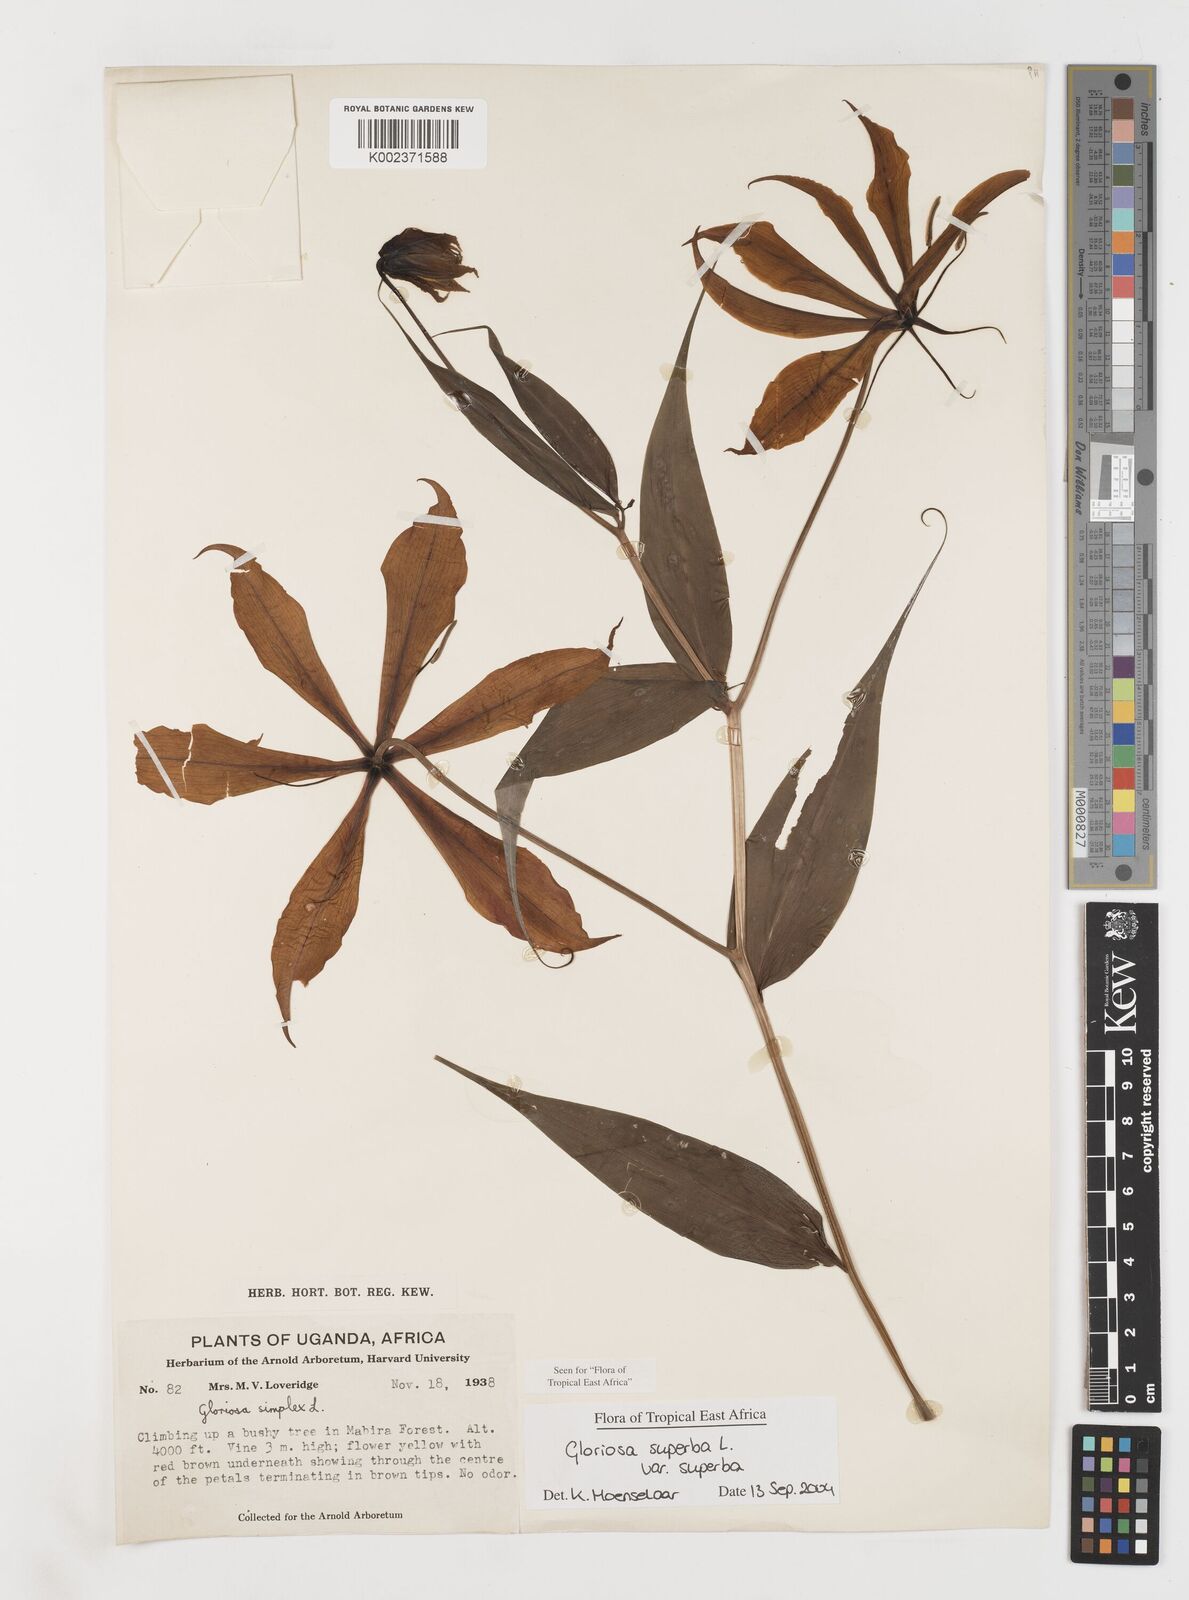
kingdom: Plantae
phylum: Tracheophyta
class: Liliopsida
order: Liliales
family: Colchicaceae
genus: Gloriosa
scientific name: Gloriosa simplex
